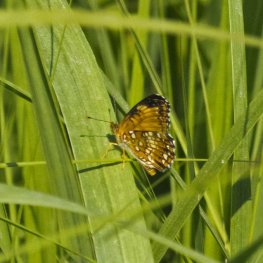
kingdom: Animalia
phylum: Arthropoda
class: Insecta
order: Lepidoptera
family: Nymphalidae
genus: Chlosyne
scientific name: Chlosyne harrisii
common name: Harris's Checkerspot
